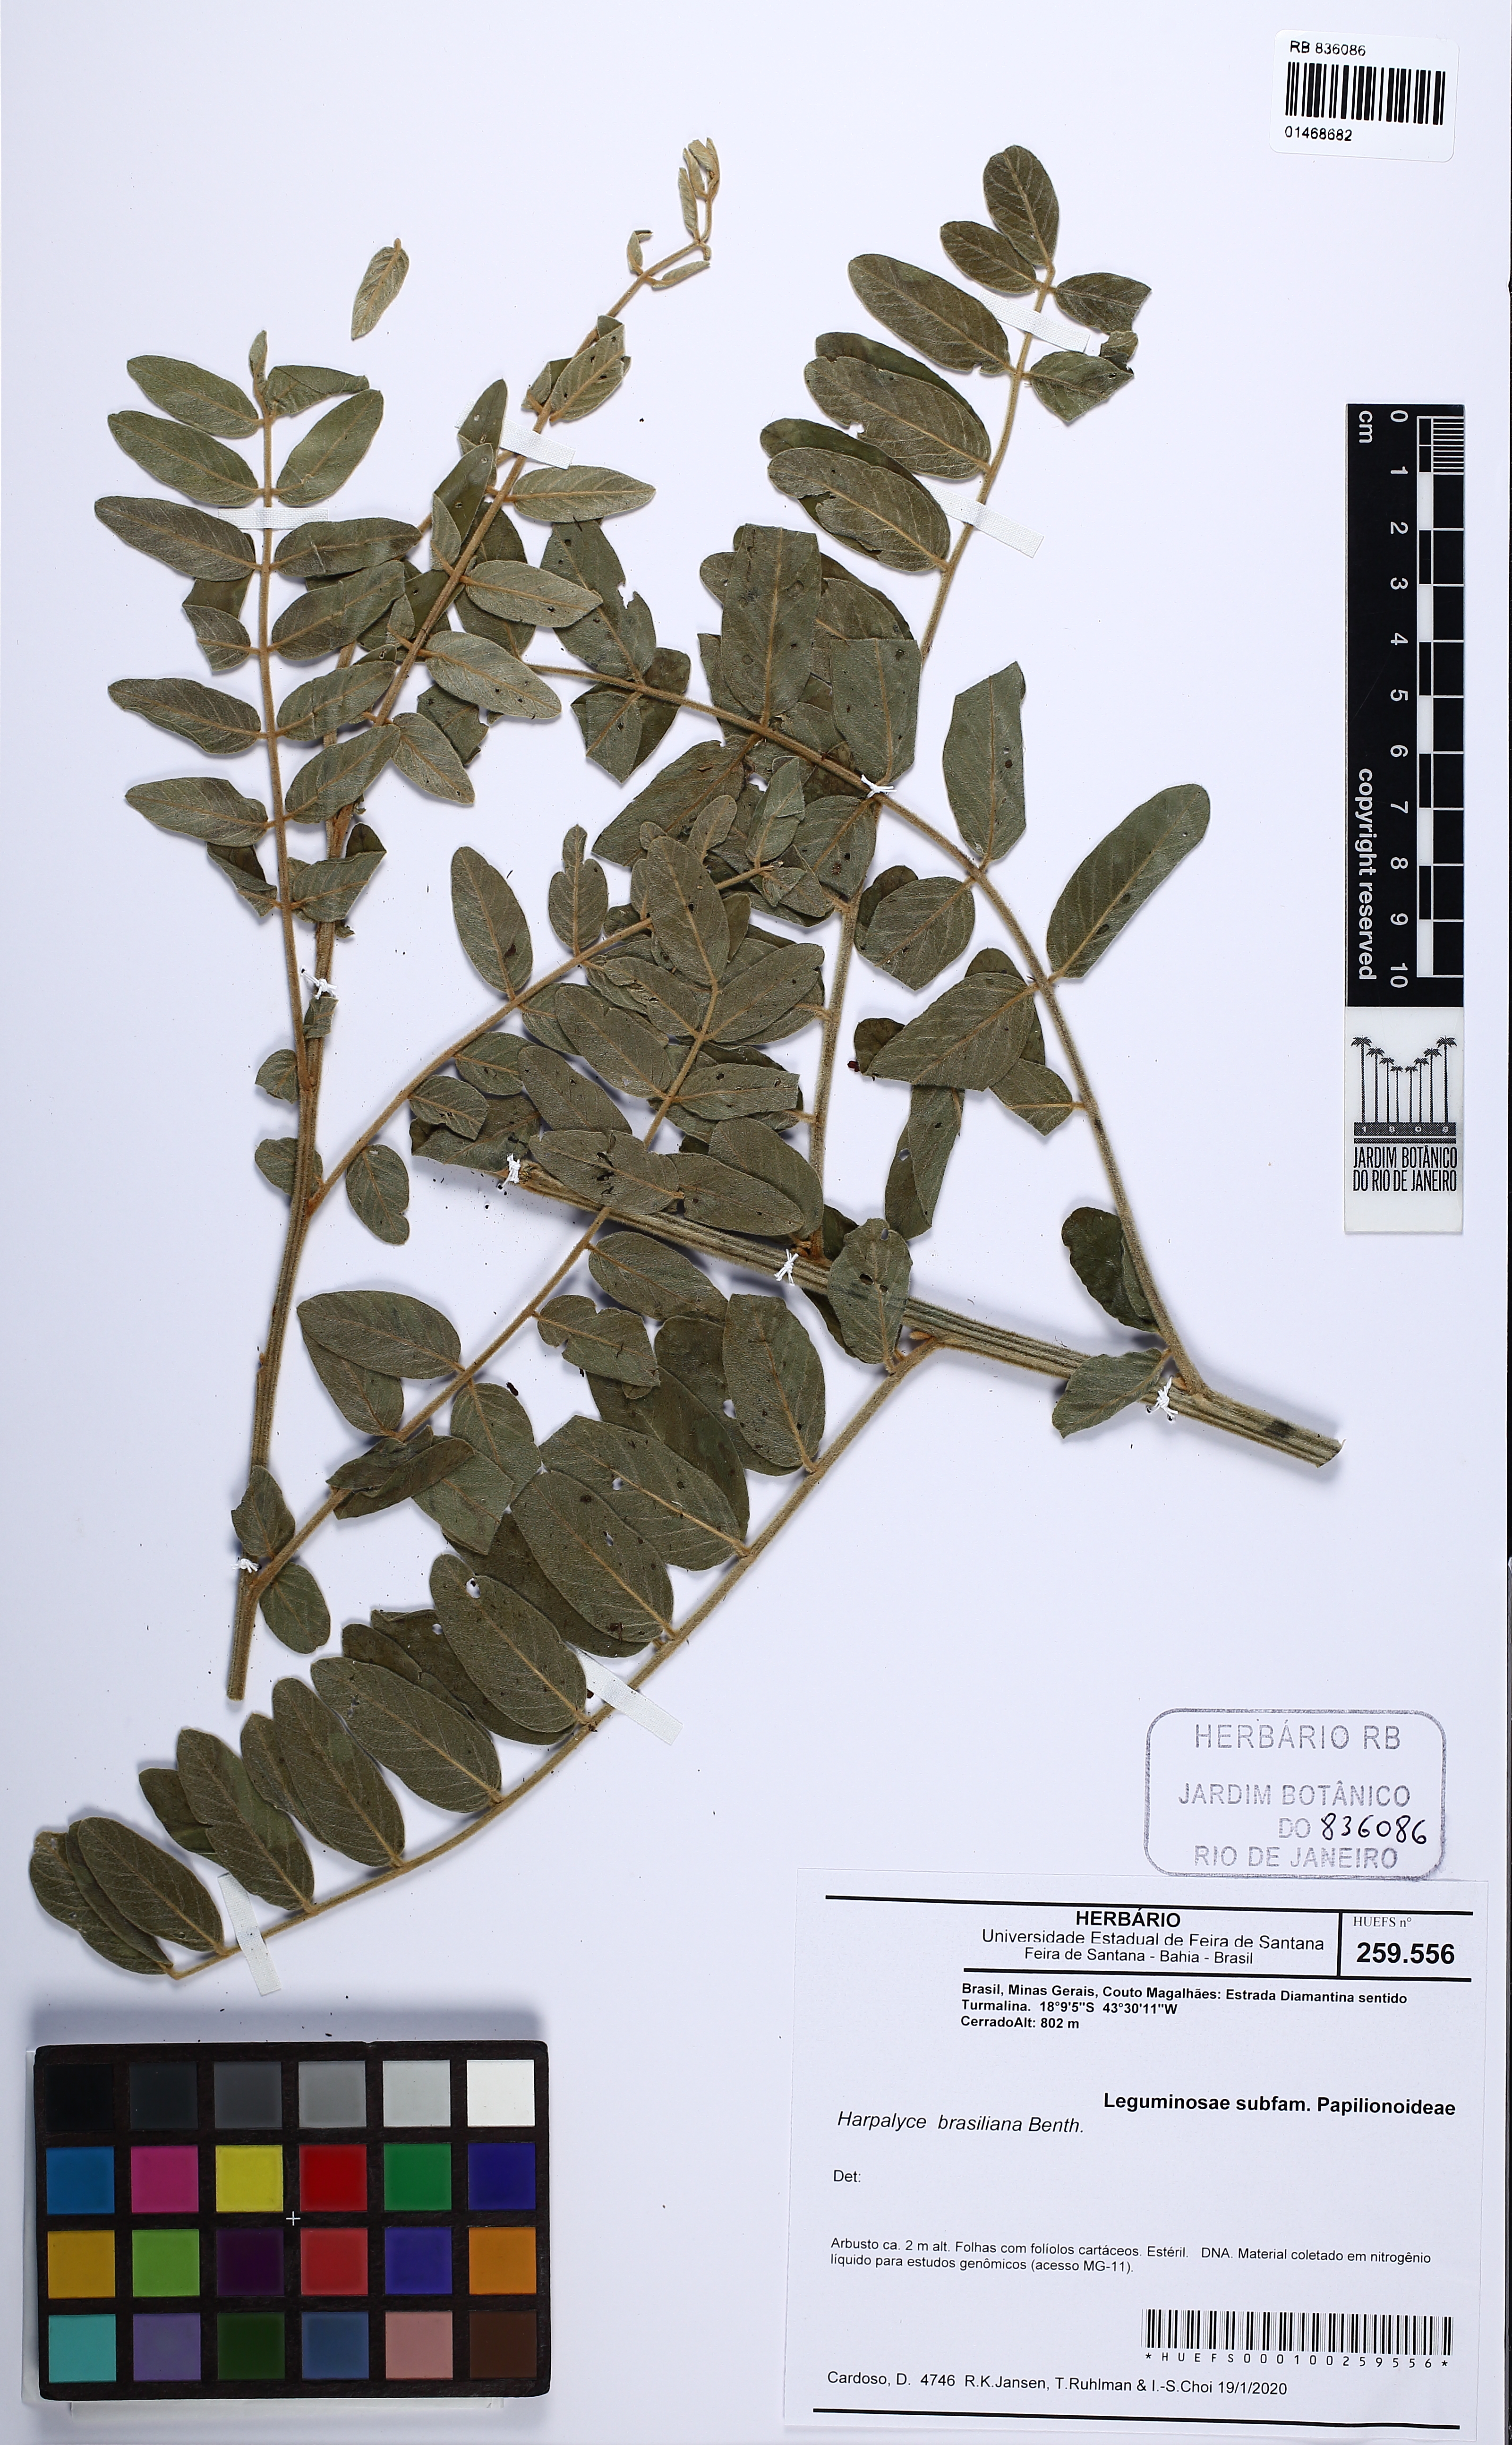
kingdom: Plantae
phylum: Tracheophyta
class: Magnoliopsida
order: Fabales
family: Fabaceae
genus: Harpalyce
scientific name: Harpalyce brasiliana
